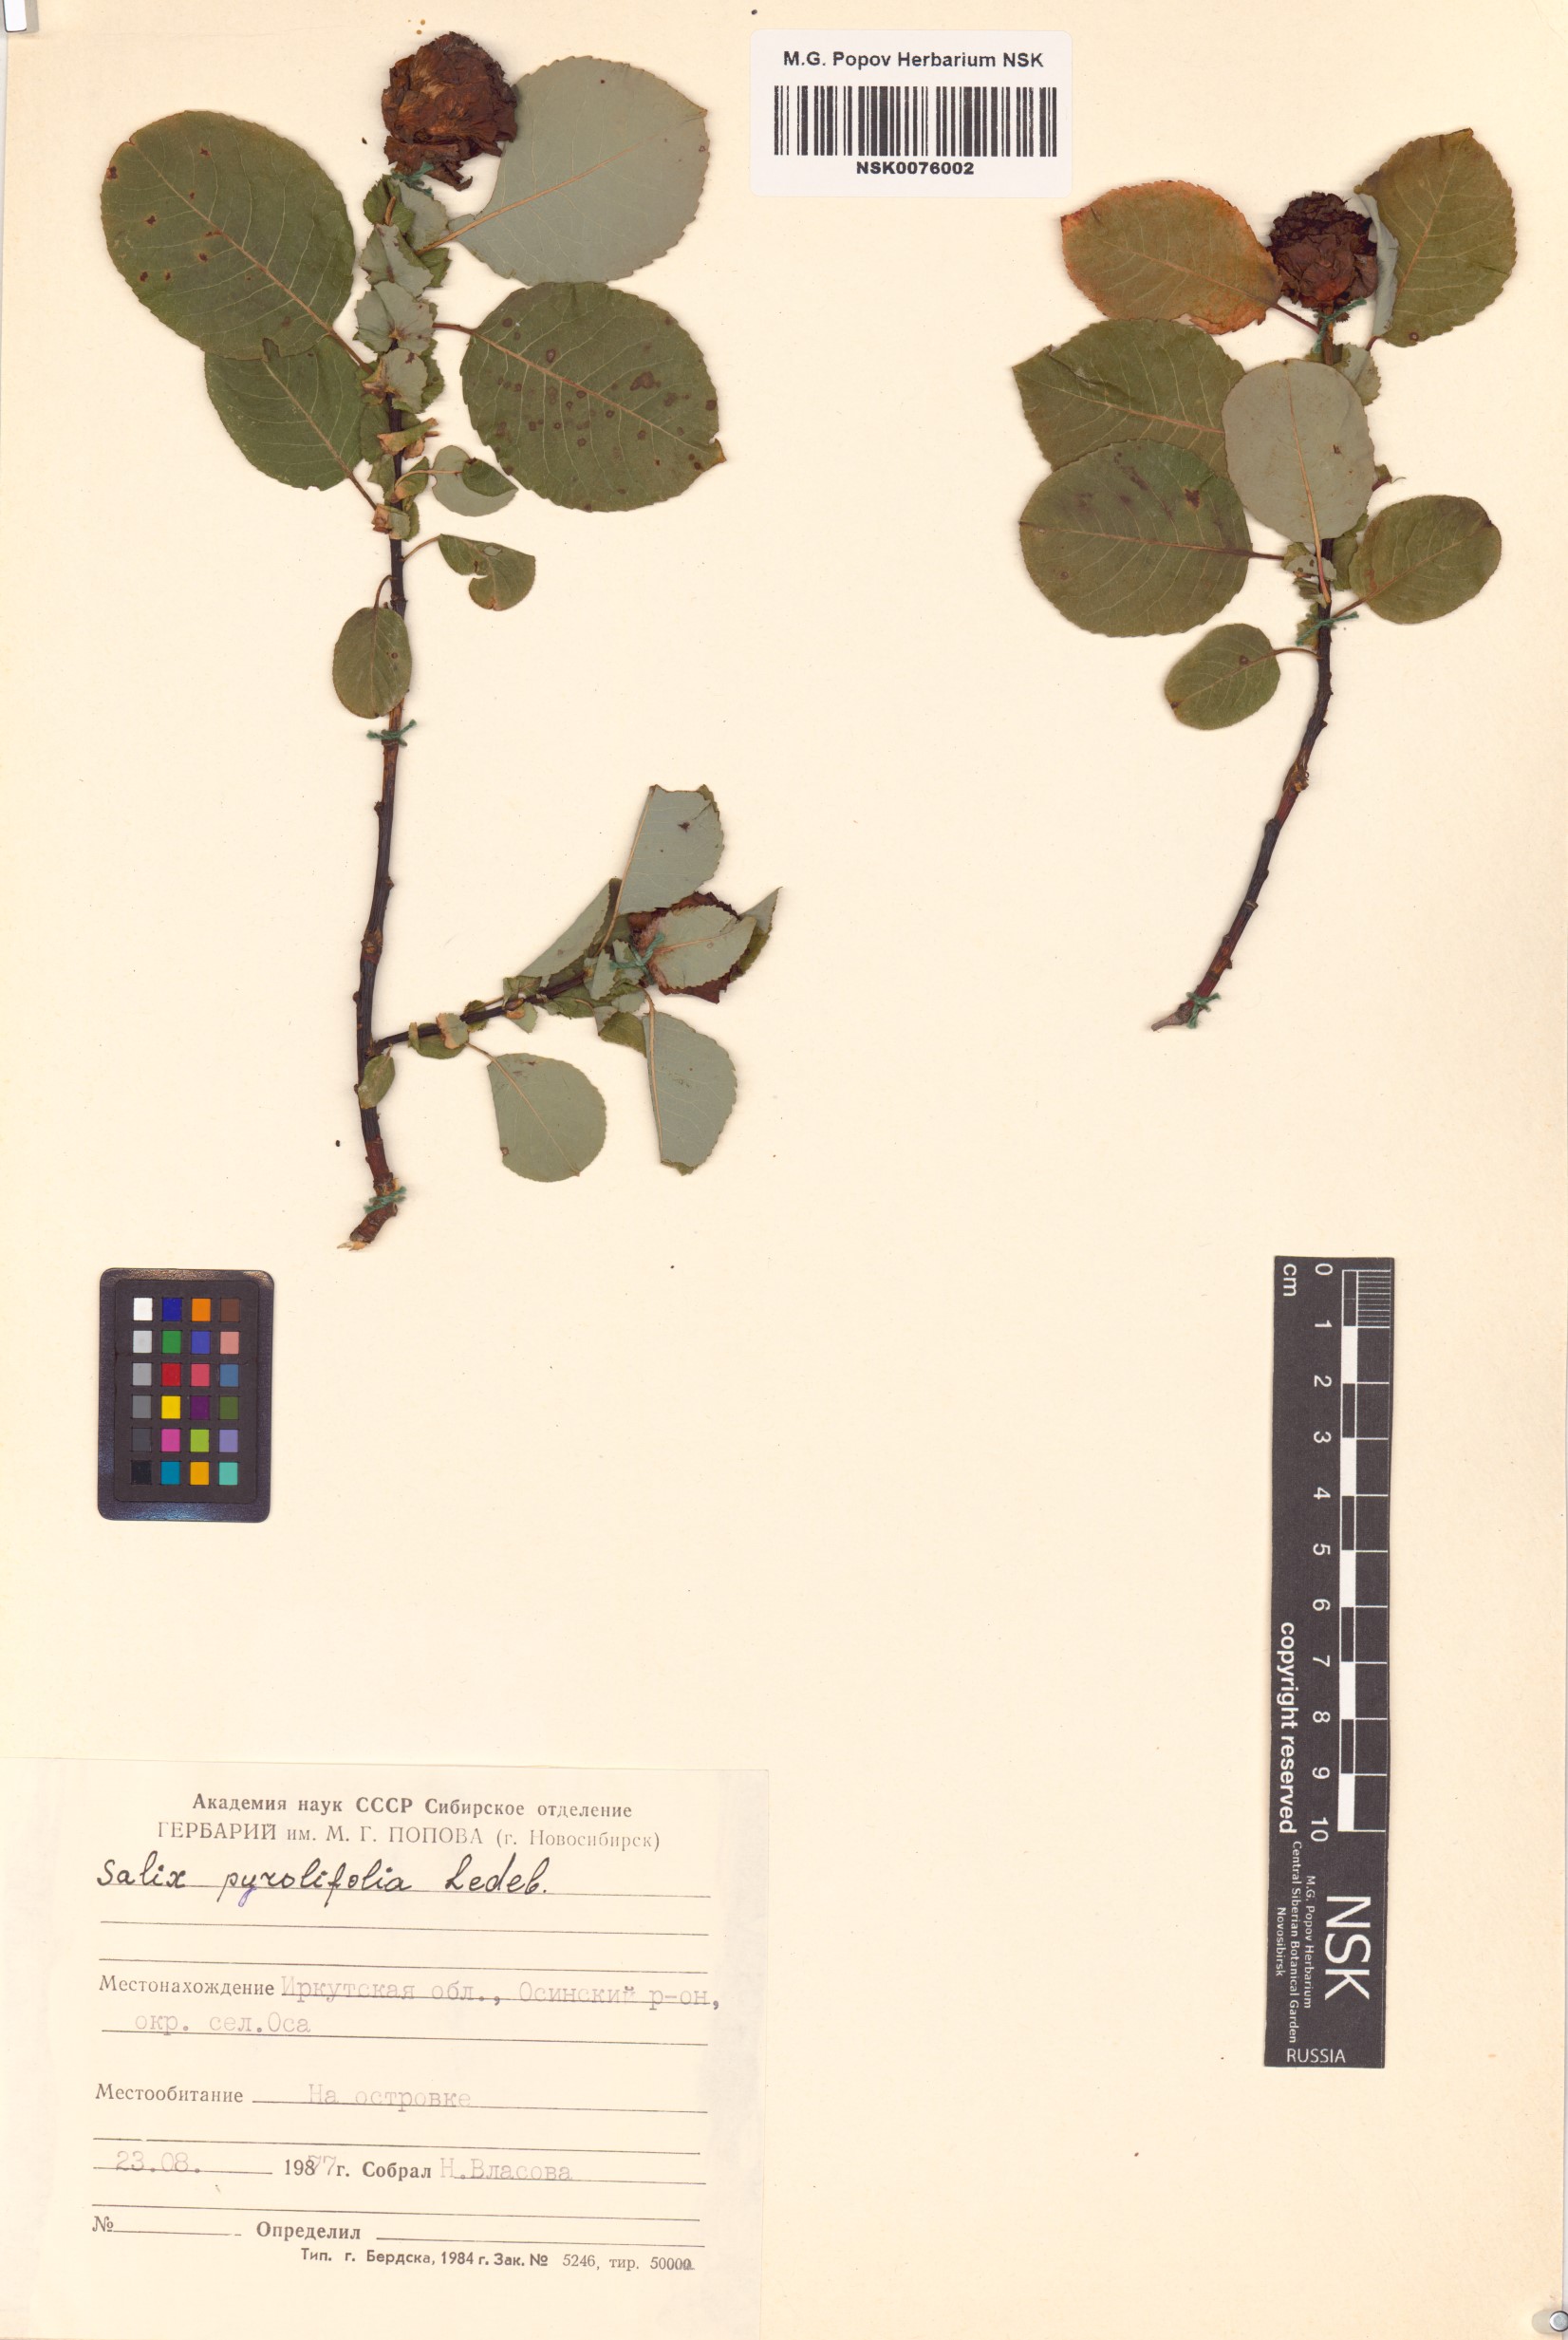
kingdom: Plantae
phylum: Tracheophyta
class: Magnoliopsida
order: Malpighiales
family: Salicaceae
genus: Salix
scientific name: Salix pyrolifolia
